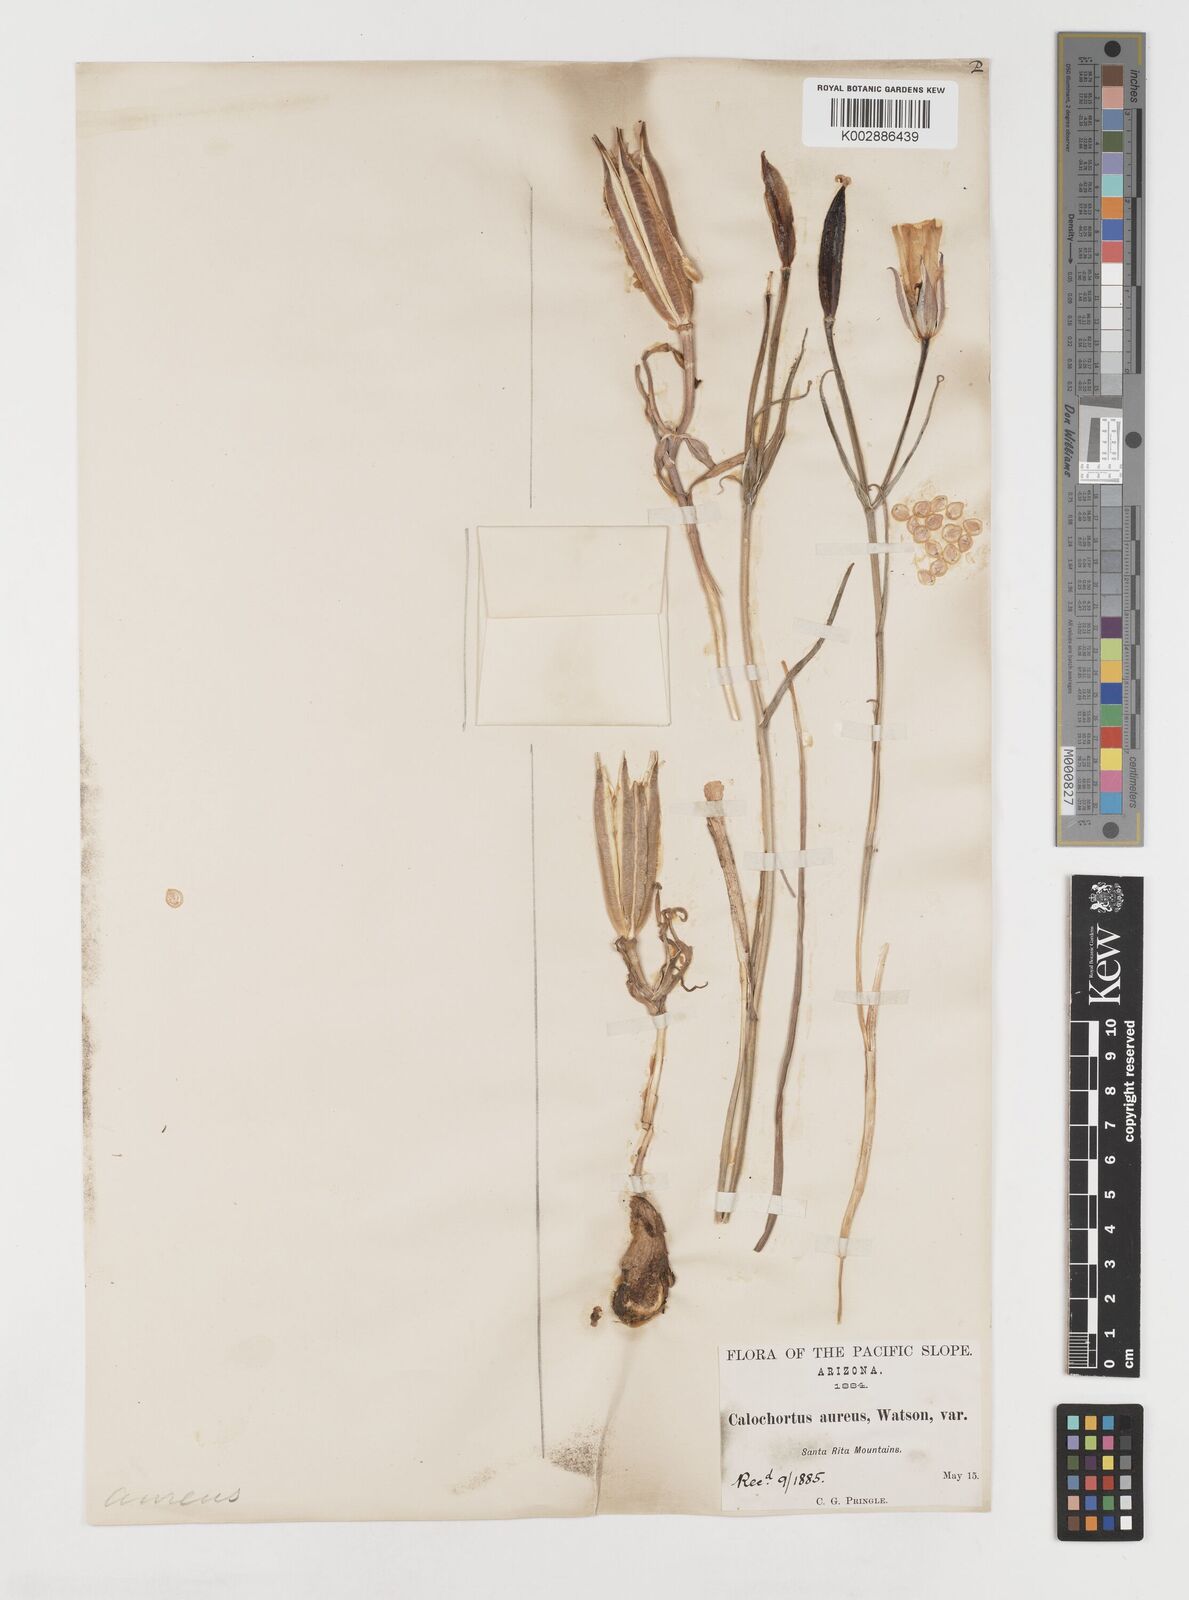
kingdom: Plantae
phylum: Tracheophyta
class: Liliopsida
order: Liliales
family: Liliaceae
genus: Calochortus
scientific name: Calochortus aureus
